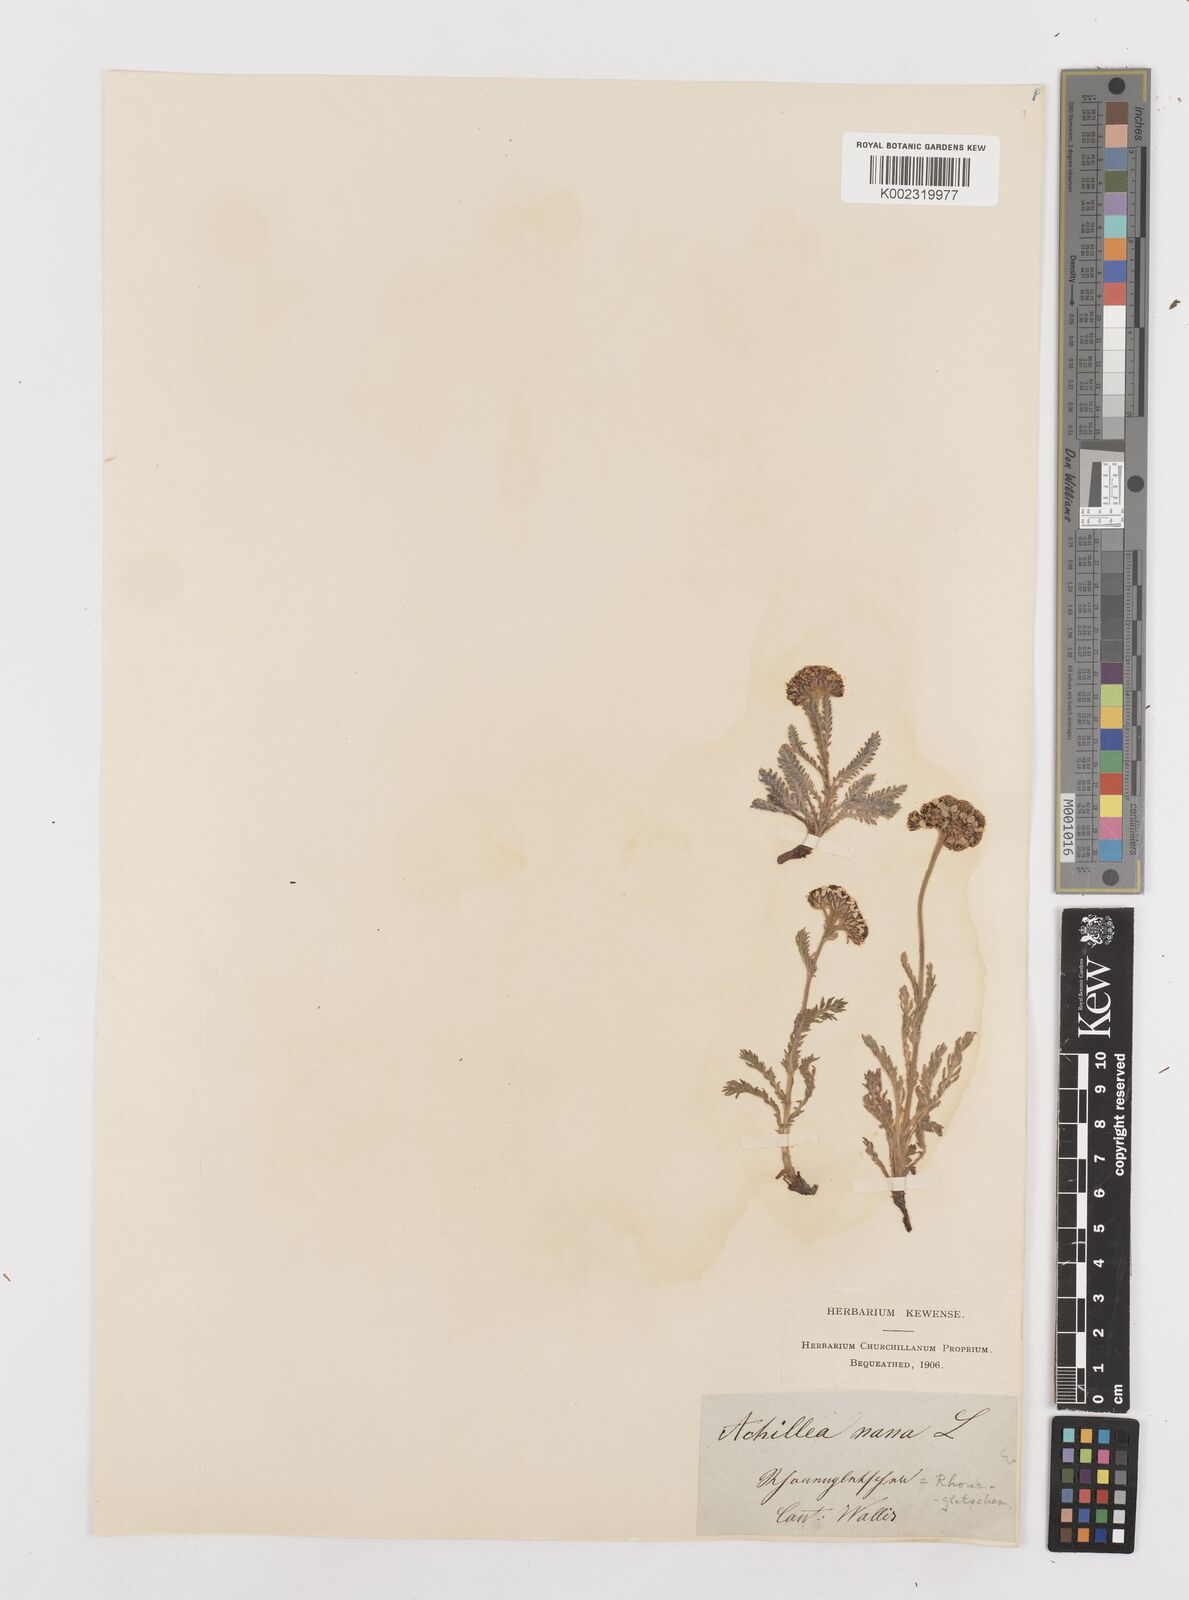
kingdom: Plantae
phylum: Tracheophyta
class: Magnoliopsida
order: Asterales
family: Asteraceae
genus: Achillea
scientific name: Achillea nana
